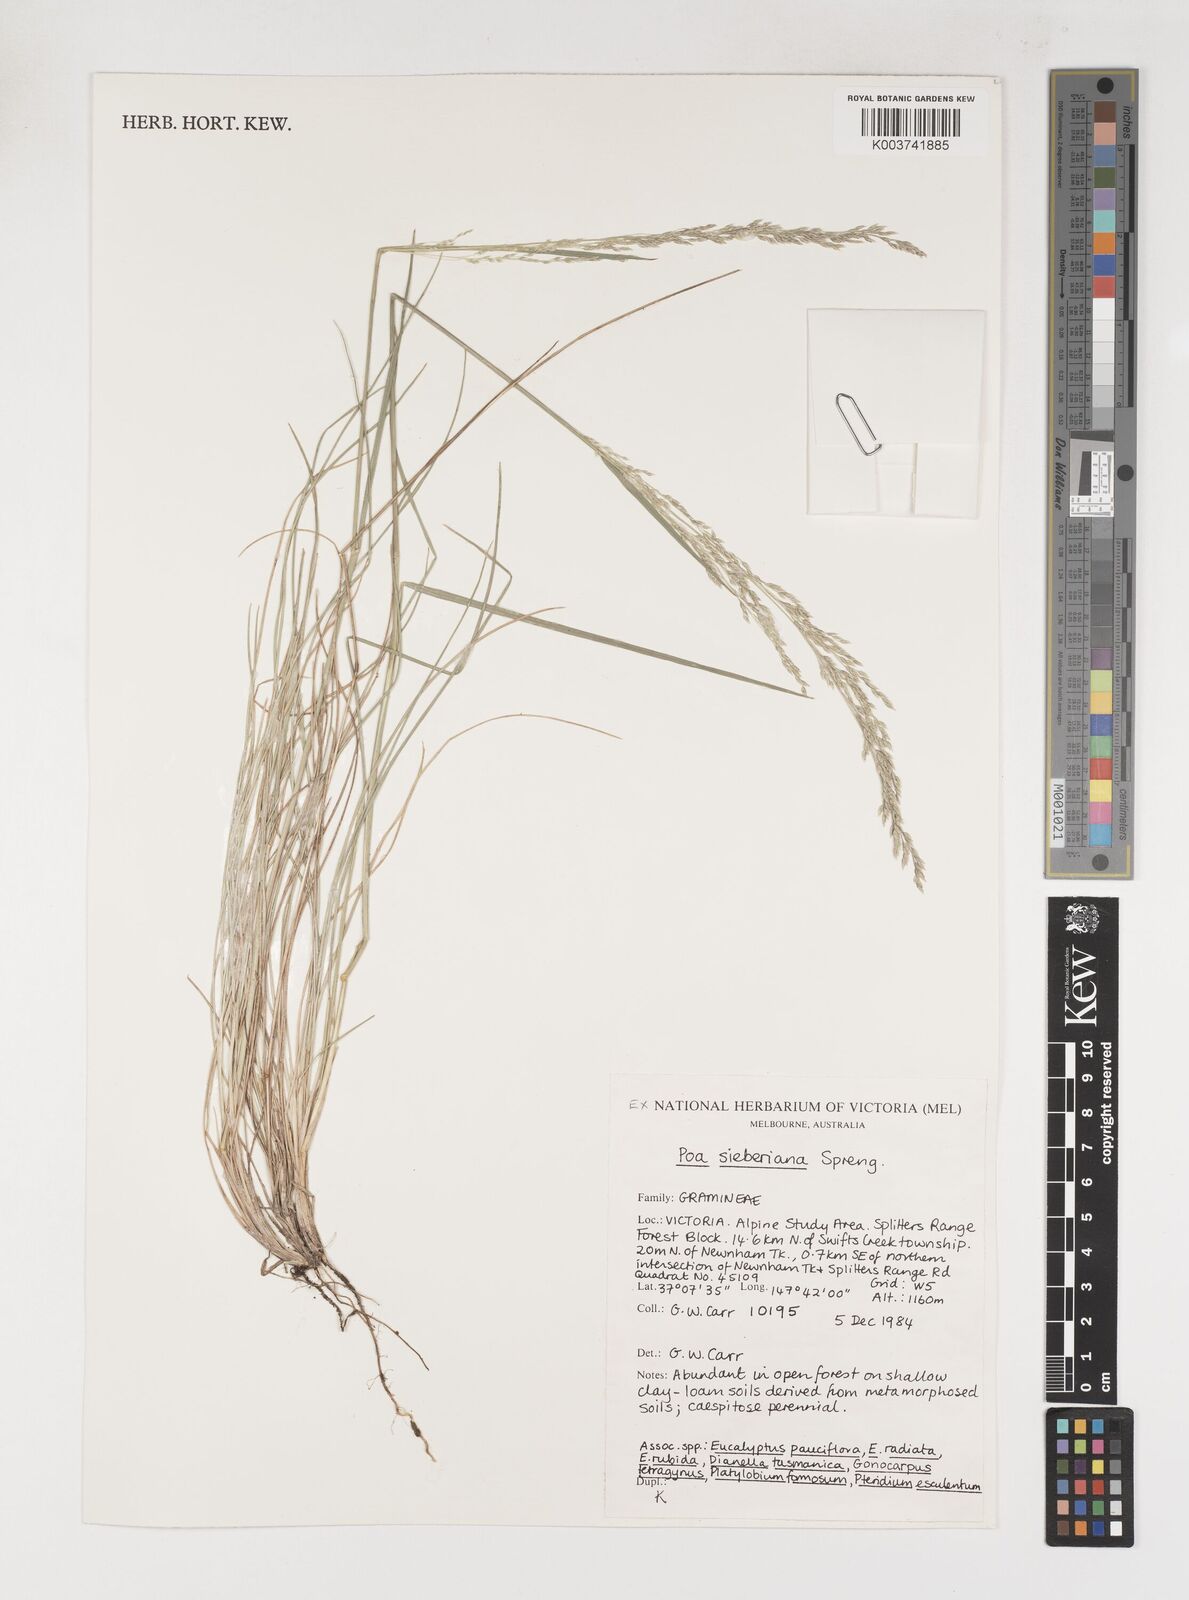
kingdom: Plantae
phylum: Tracheophyta
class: Liliopsida
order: Poales
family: Poaceae
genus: Poa
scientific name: Poa sieberiana
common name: Tussock poa
